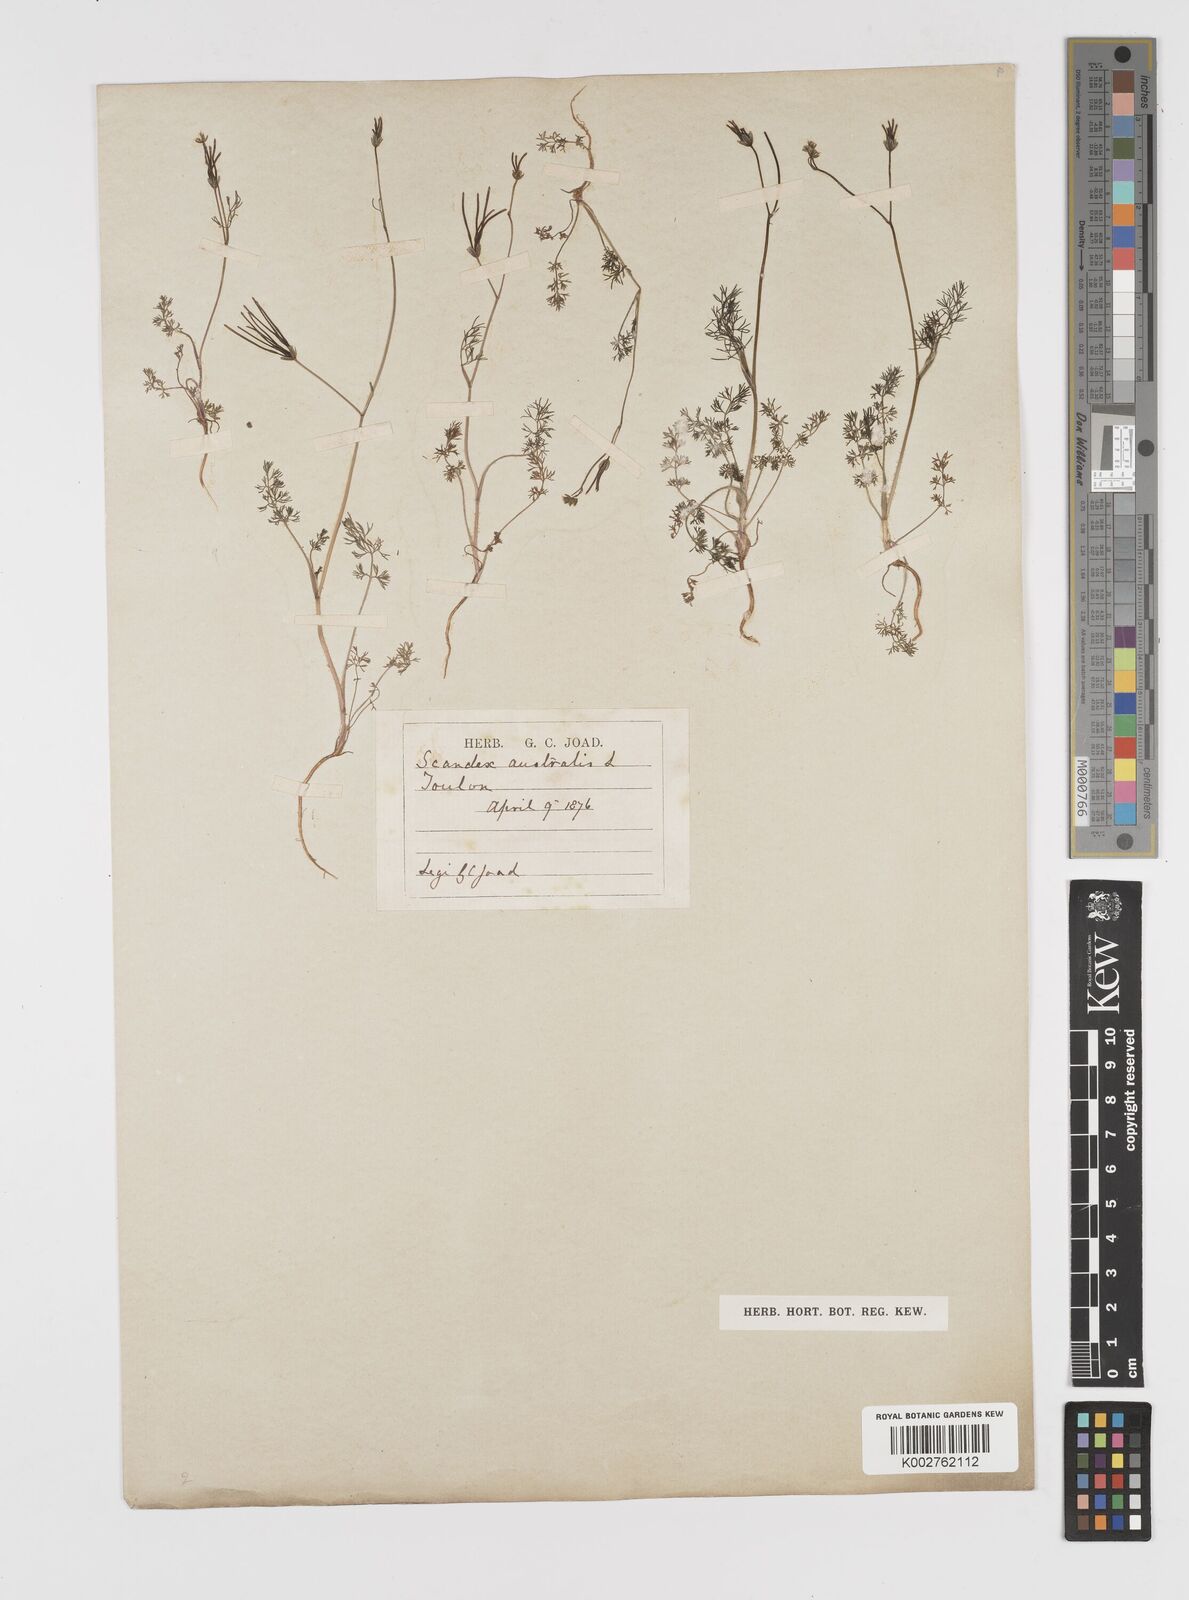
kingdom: Plantae
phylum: Tracheophyta
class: Magnoliopsida
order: Apiales
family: Apiaceae
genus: Scandix
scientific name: Scandix australis
